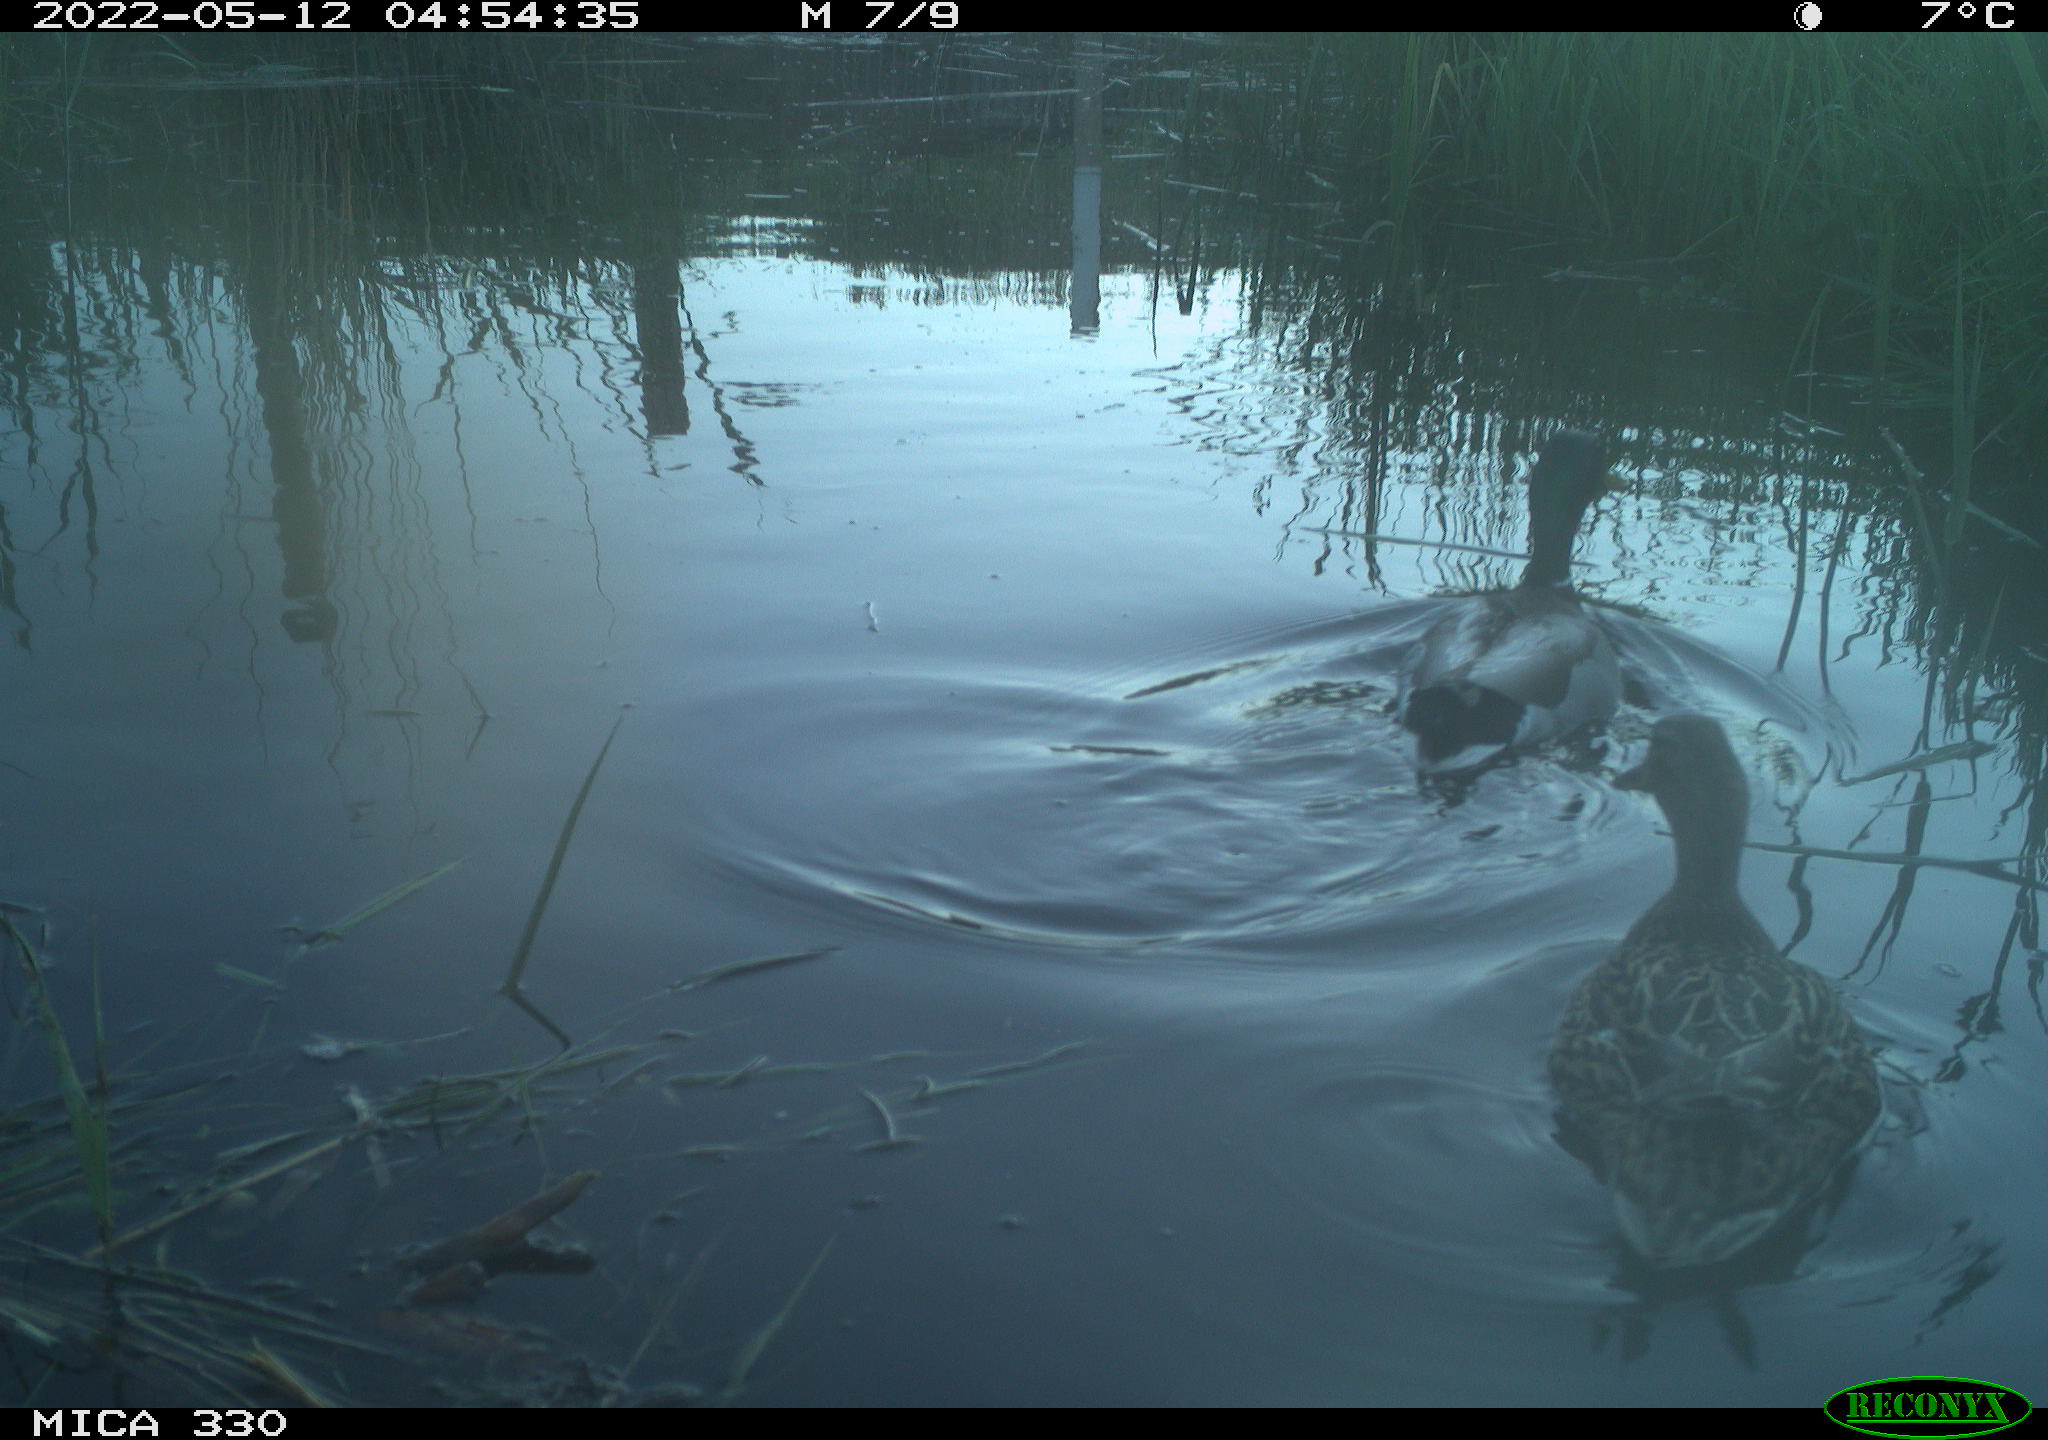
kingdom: Animalia
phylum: Chordata
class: Aves
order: Anseriformes
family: Anatidae
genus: Anas
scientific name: Anas platyrhynchos
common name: Mallard
